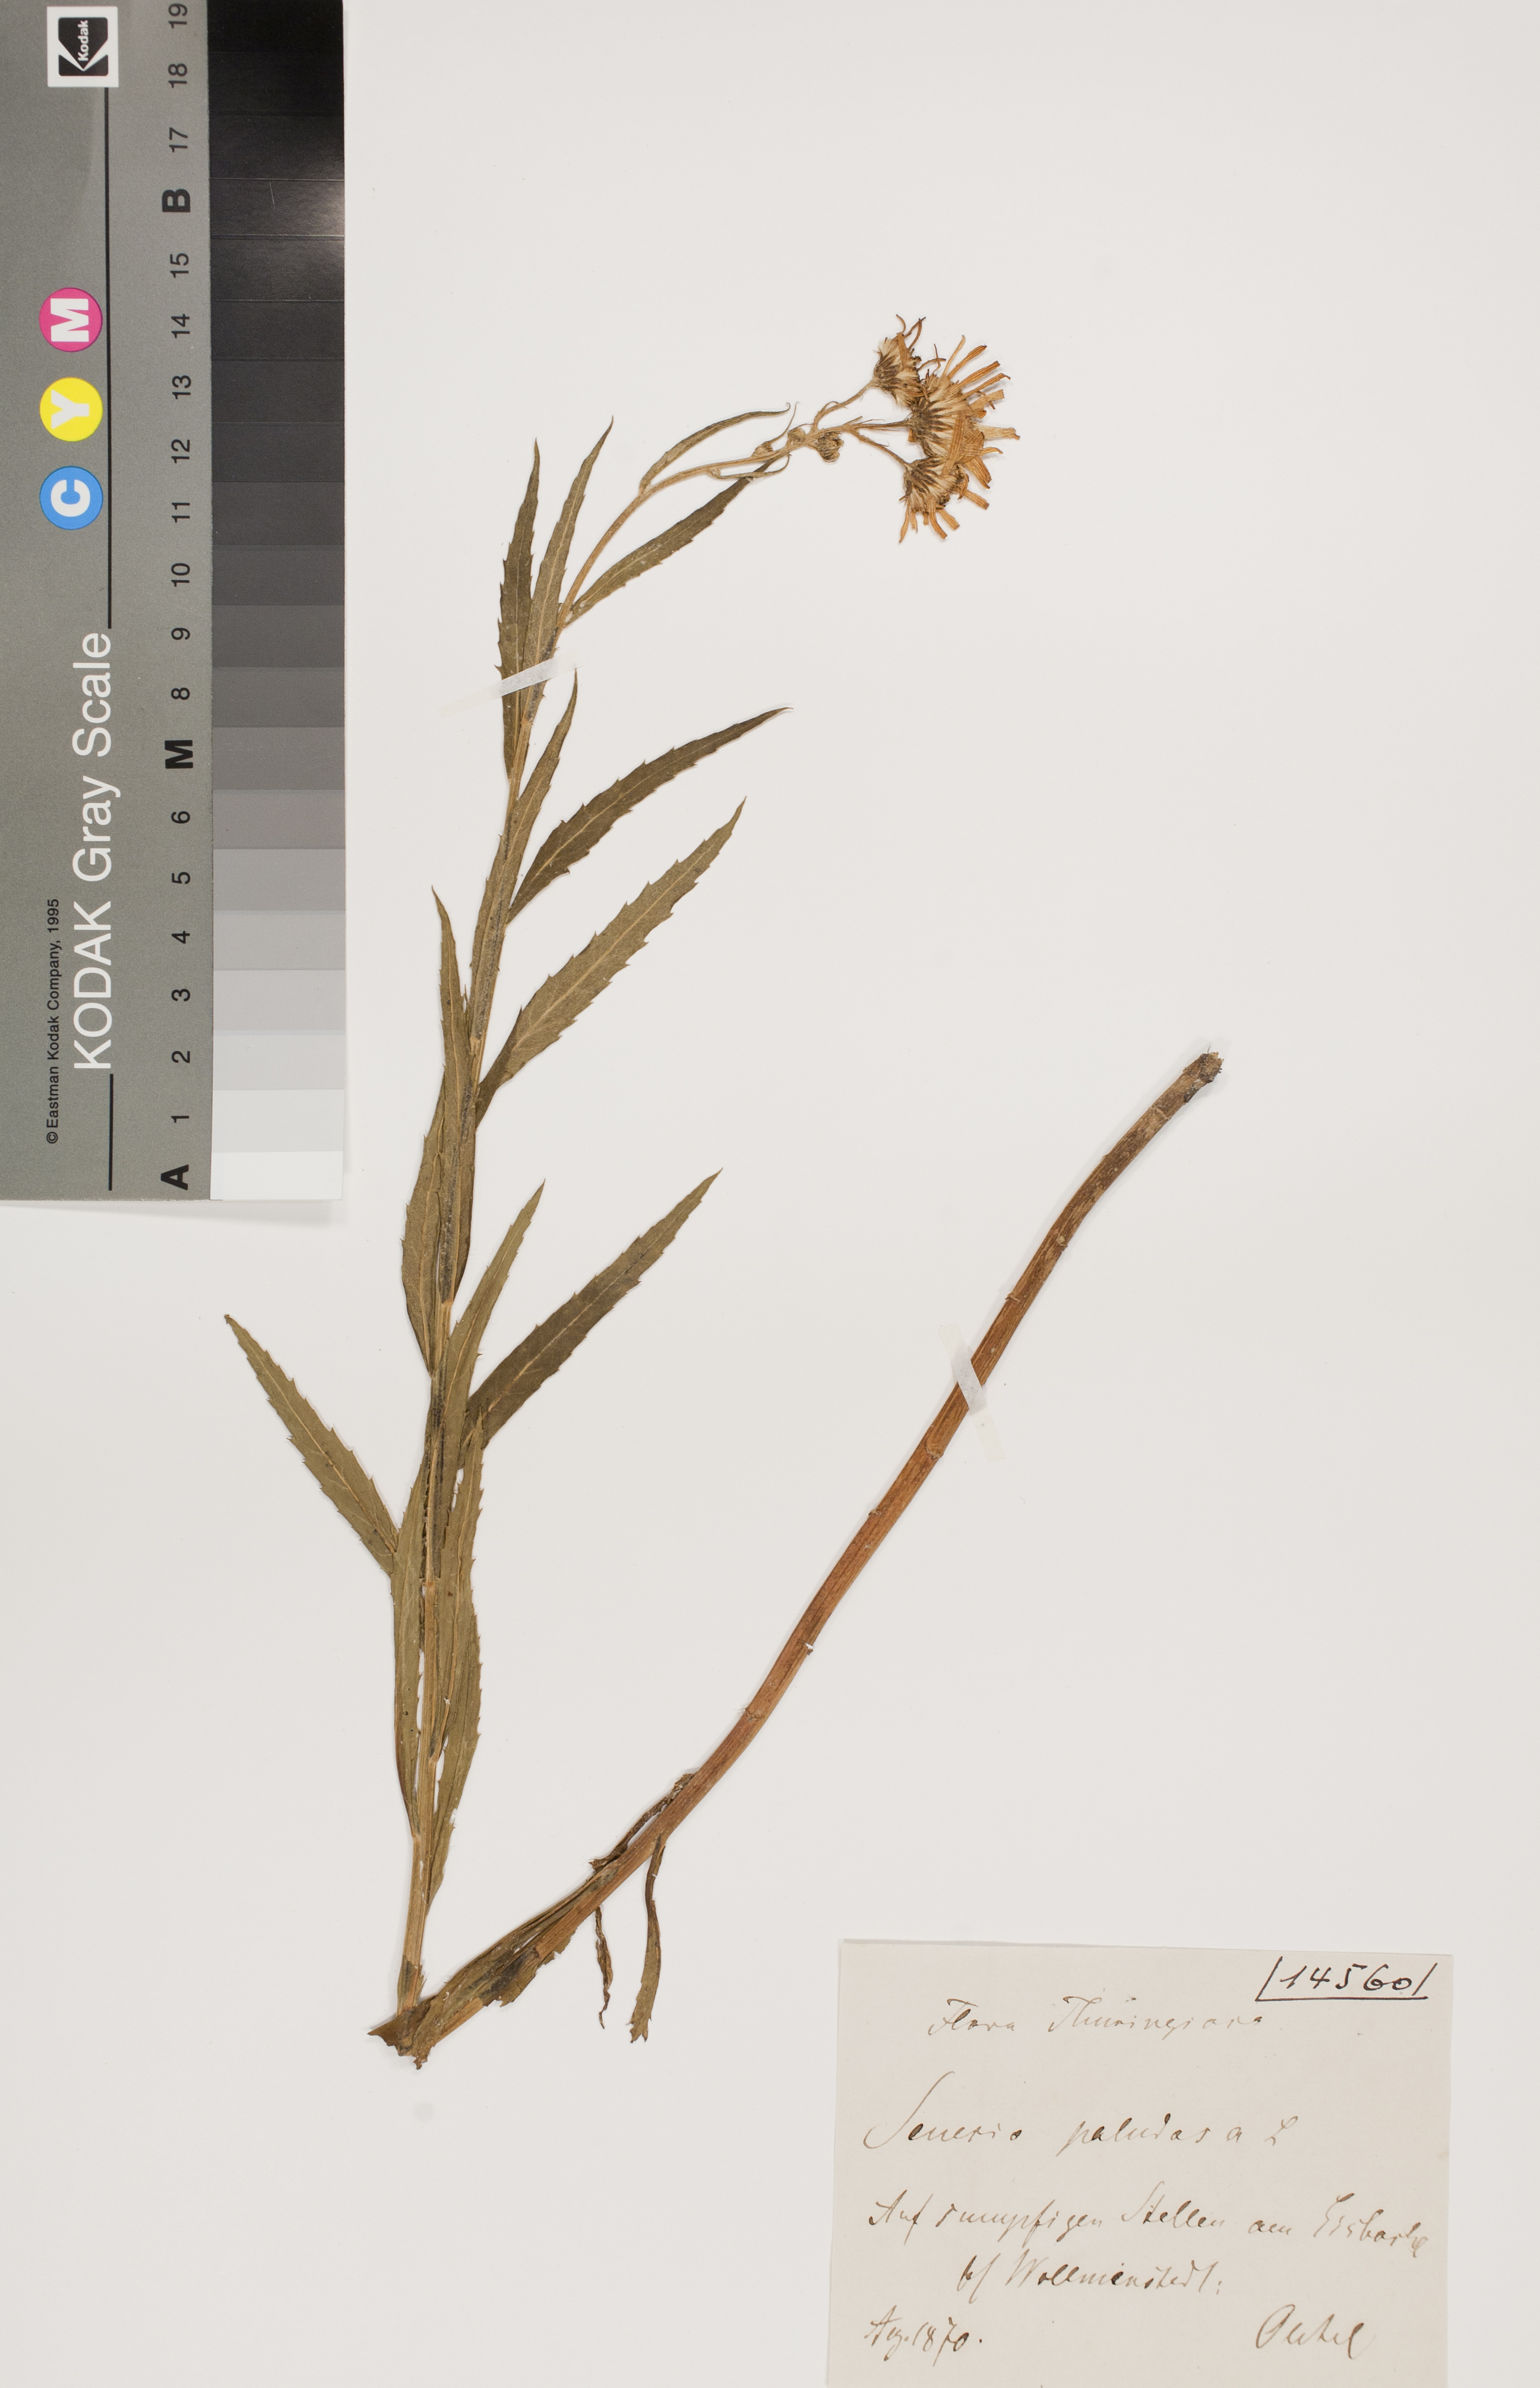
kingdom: Plantae
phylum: Tracheophyta
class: Magnoliopsida
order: Asterales
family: Asteraceae
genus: Jacobaea
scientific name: Jacobaea paludosa
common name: Fen ragwort
